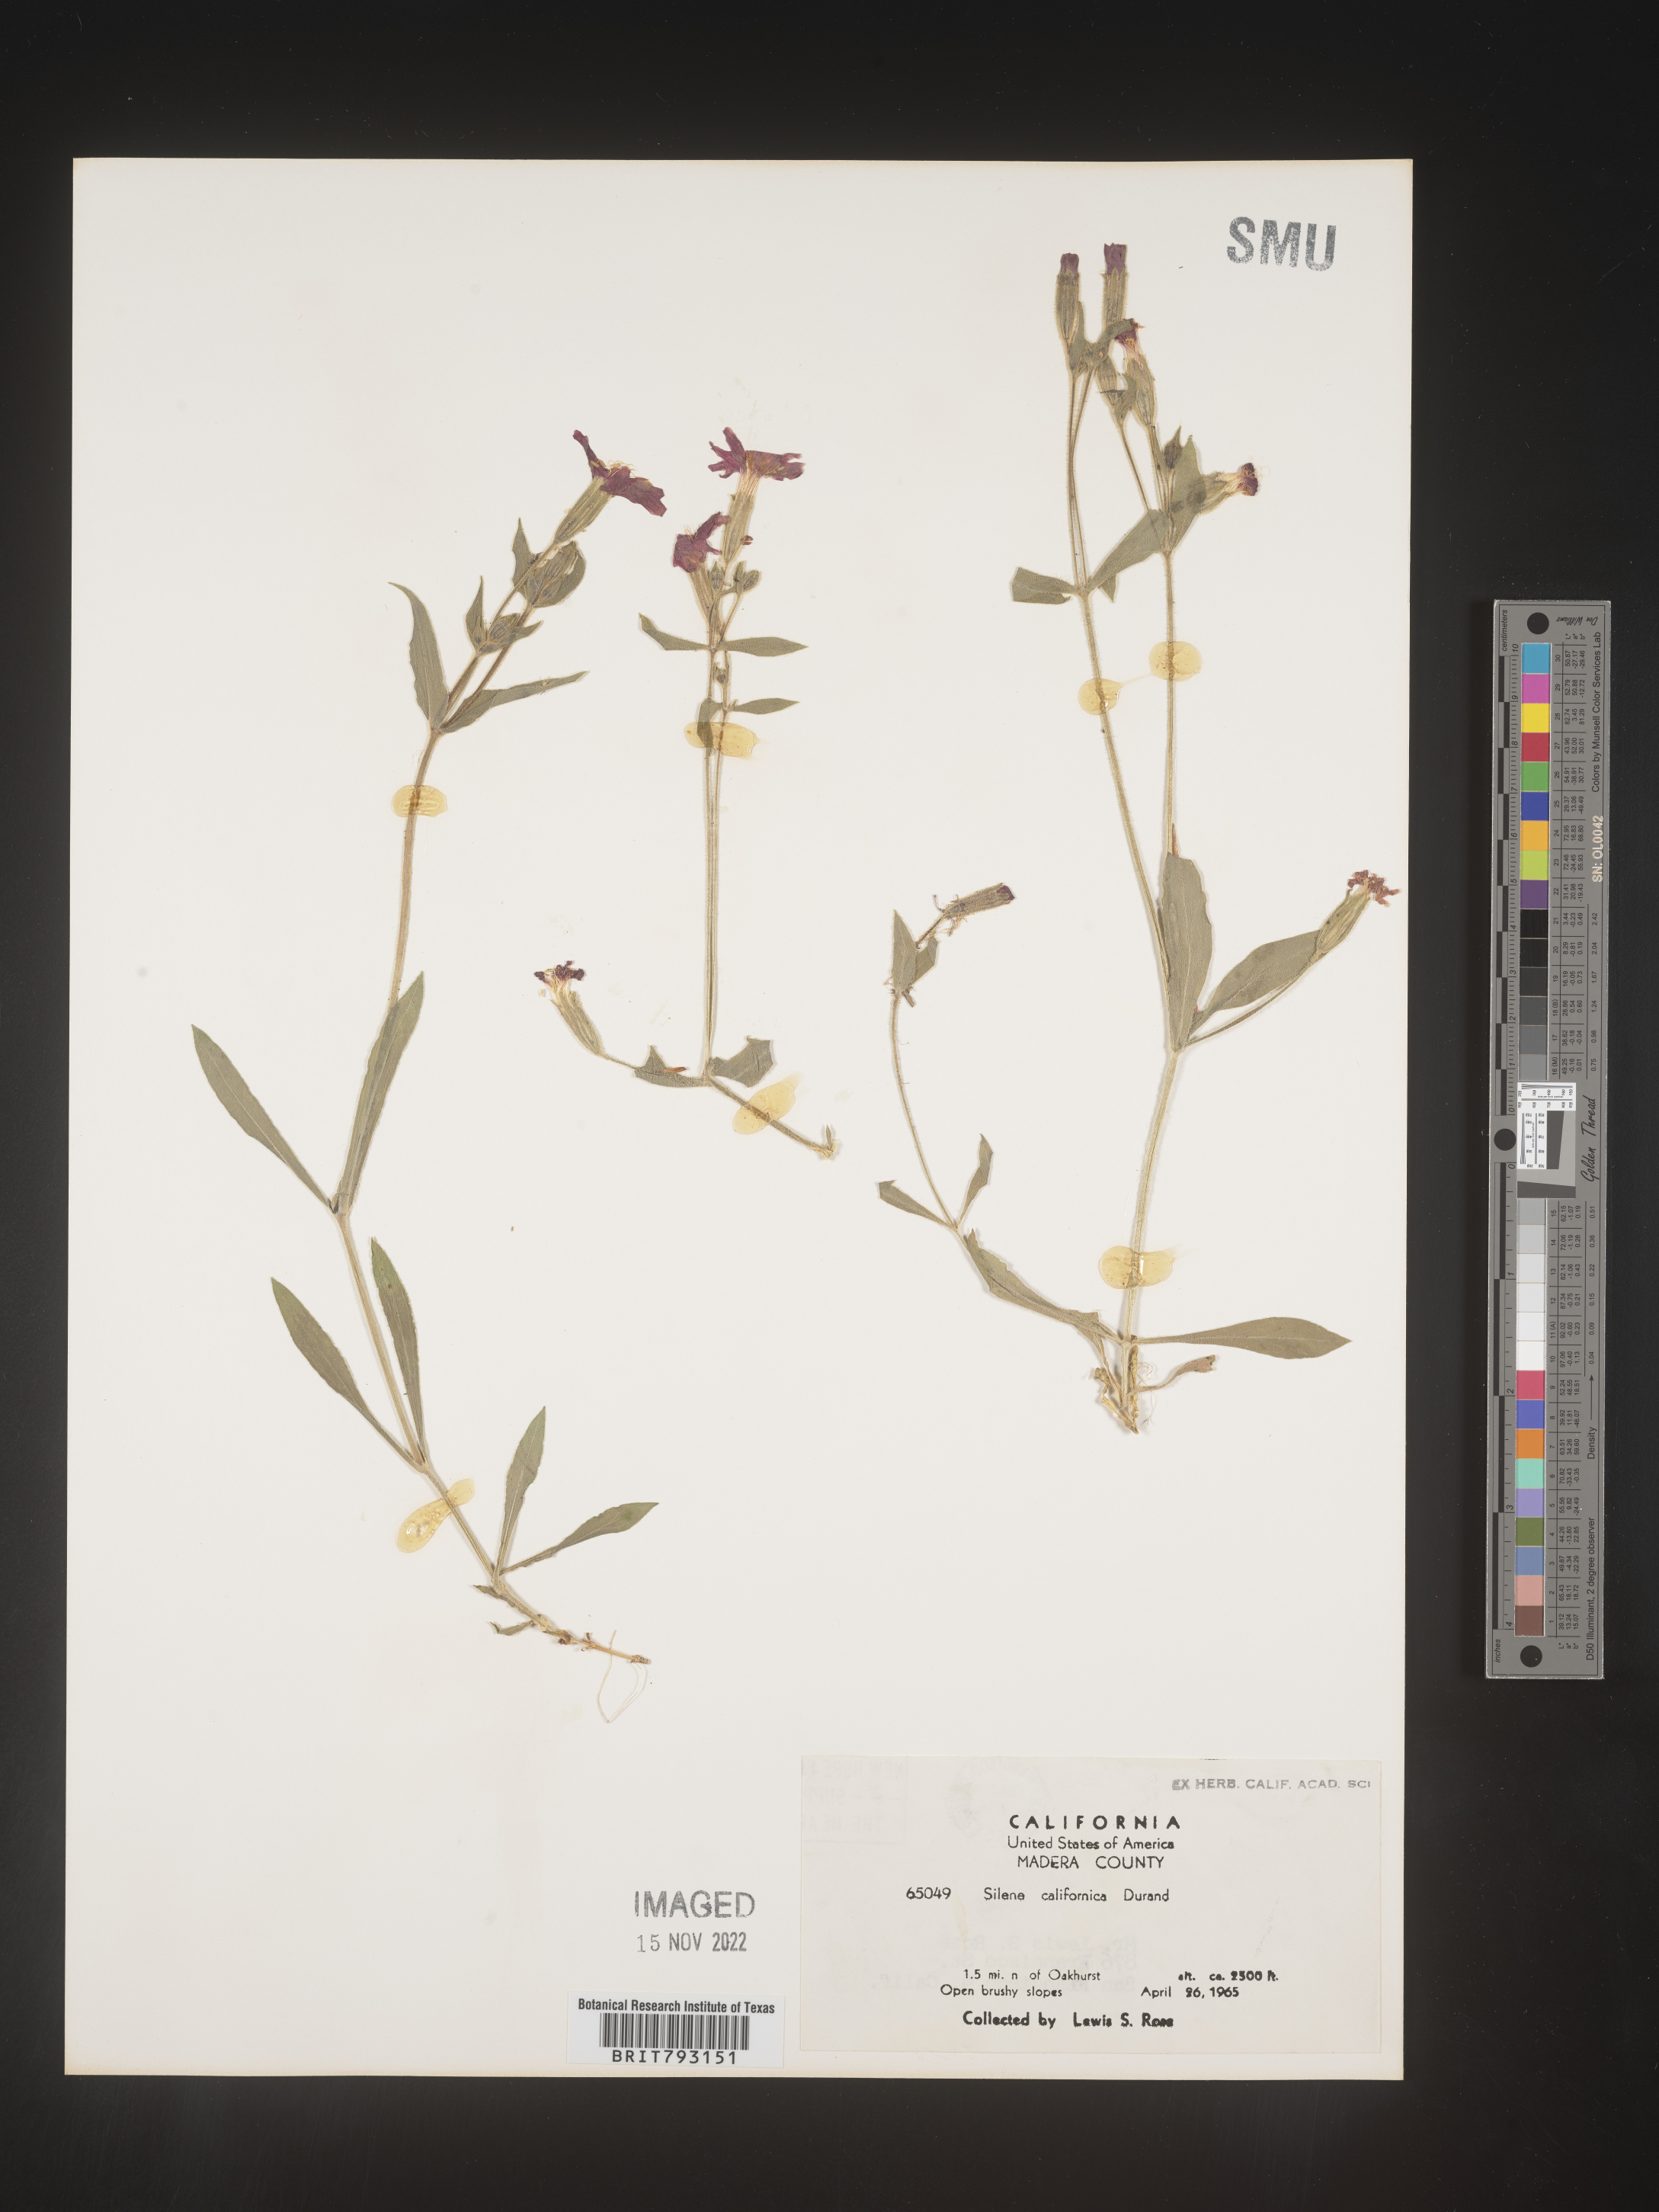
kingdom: Plantae
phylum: Tracheophyta
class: Magnoliopsida
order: Caryophyllales
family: Caryophyllaceae
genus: Silene
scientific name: Silene laciniata
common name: Indian-pink
